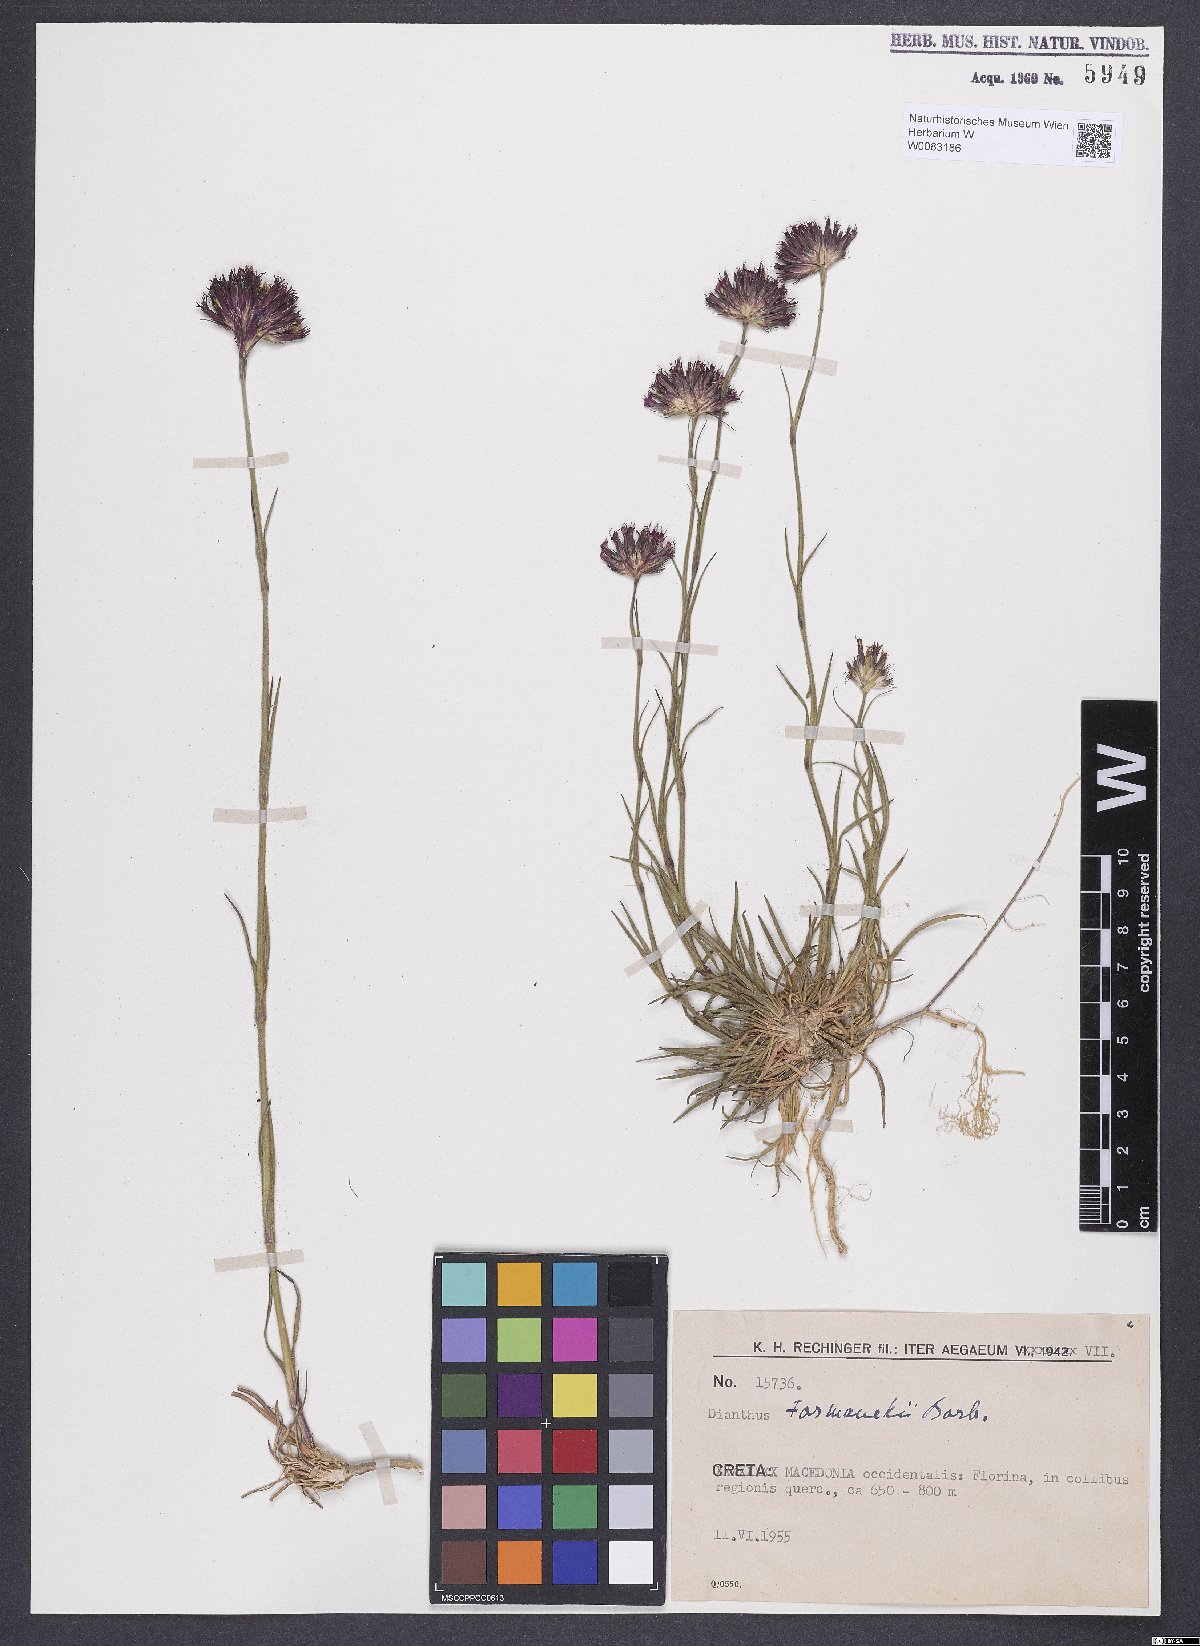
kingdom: Plantae
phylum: Tracheophyta
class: Magnoliopsida
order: Caryophyllales
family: Caryophyllaceae
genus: Dianthus
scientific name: Dianthus formanekii
